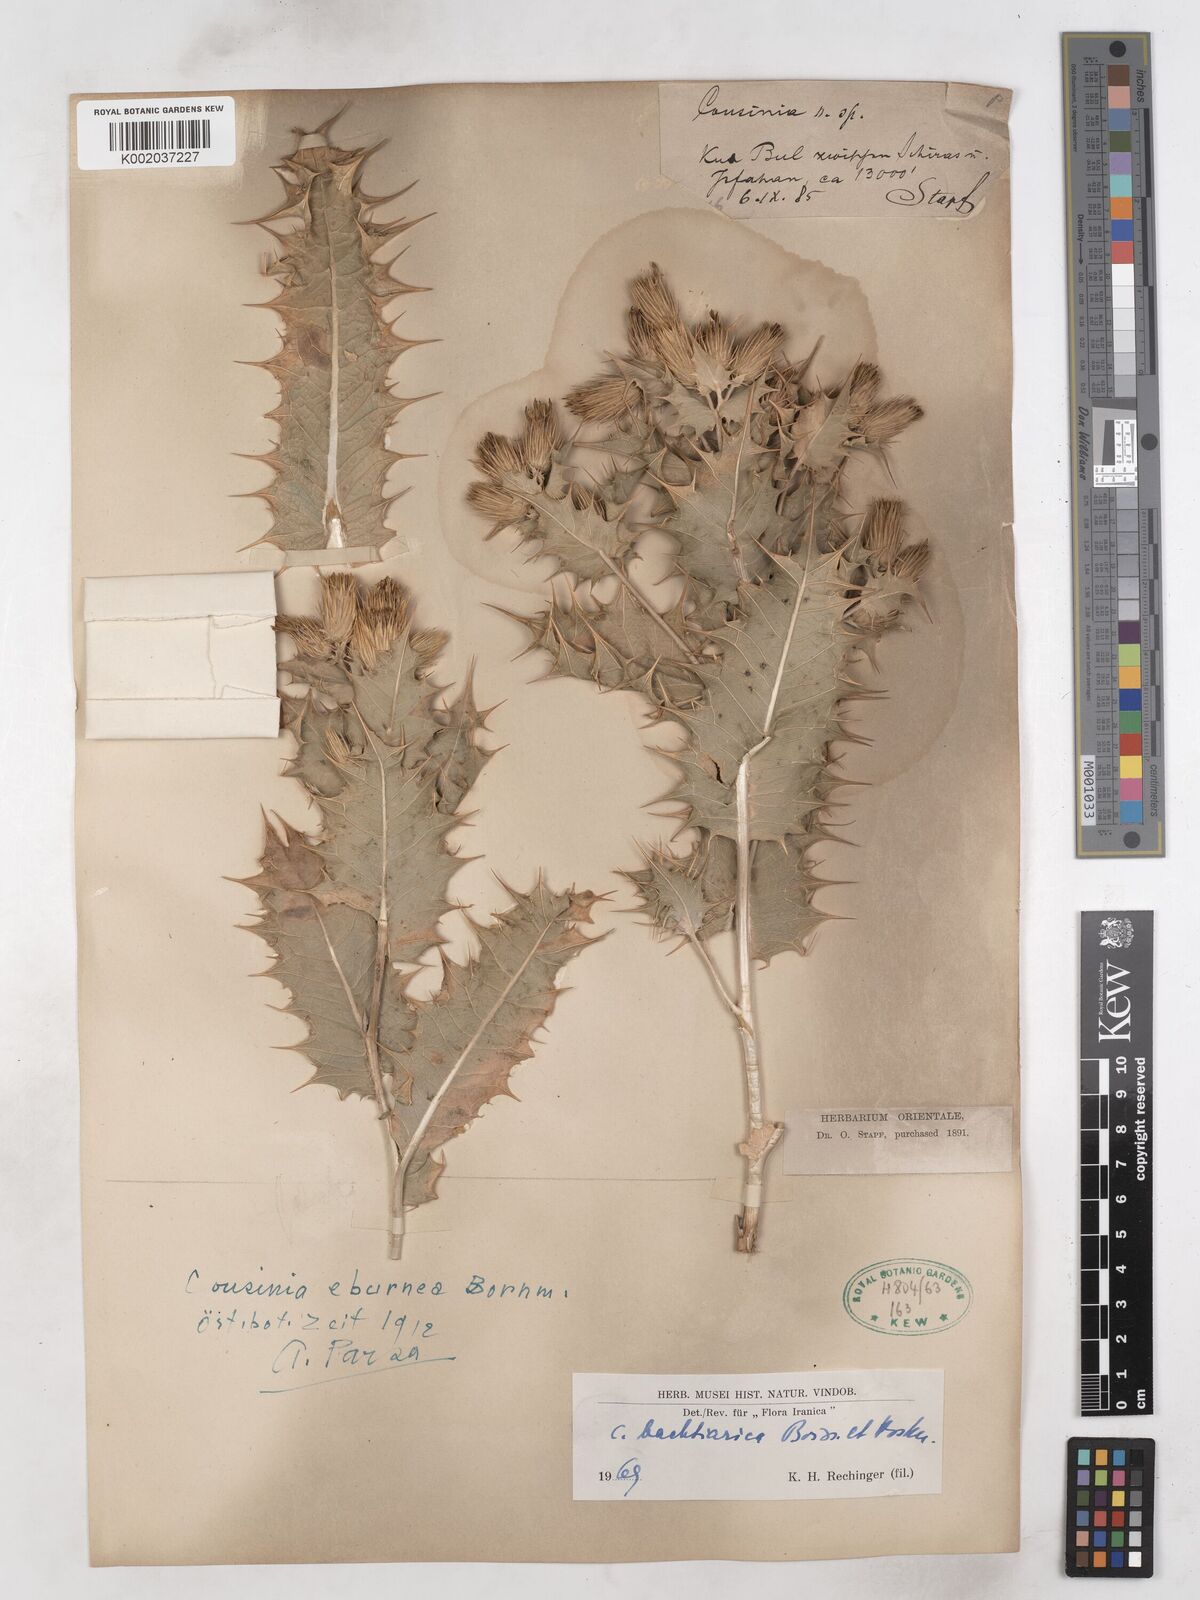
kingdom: Plantae
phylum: Tracheophyta
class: Magnoliopsida
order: Asterales
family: Asteraceae
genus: Cousinia
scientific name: Cousinia bachtiarica
